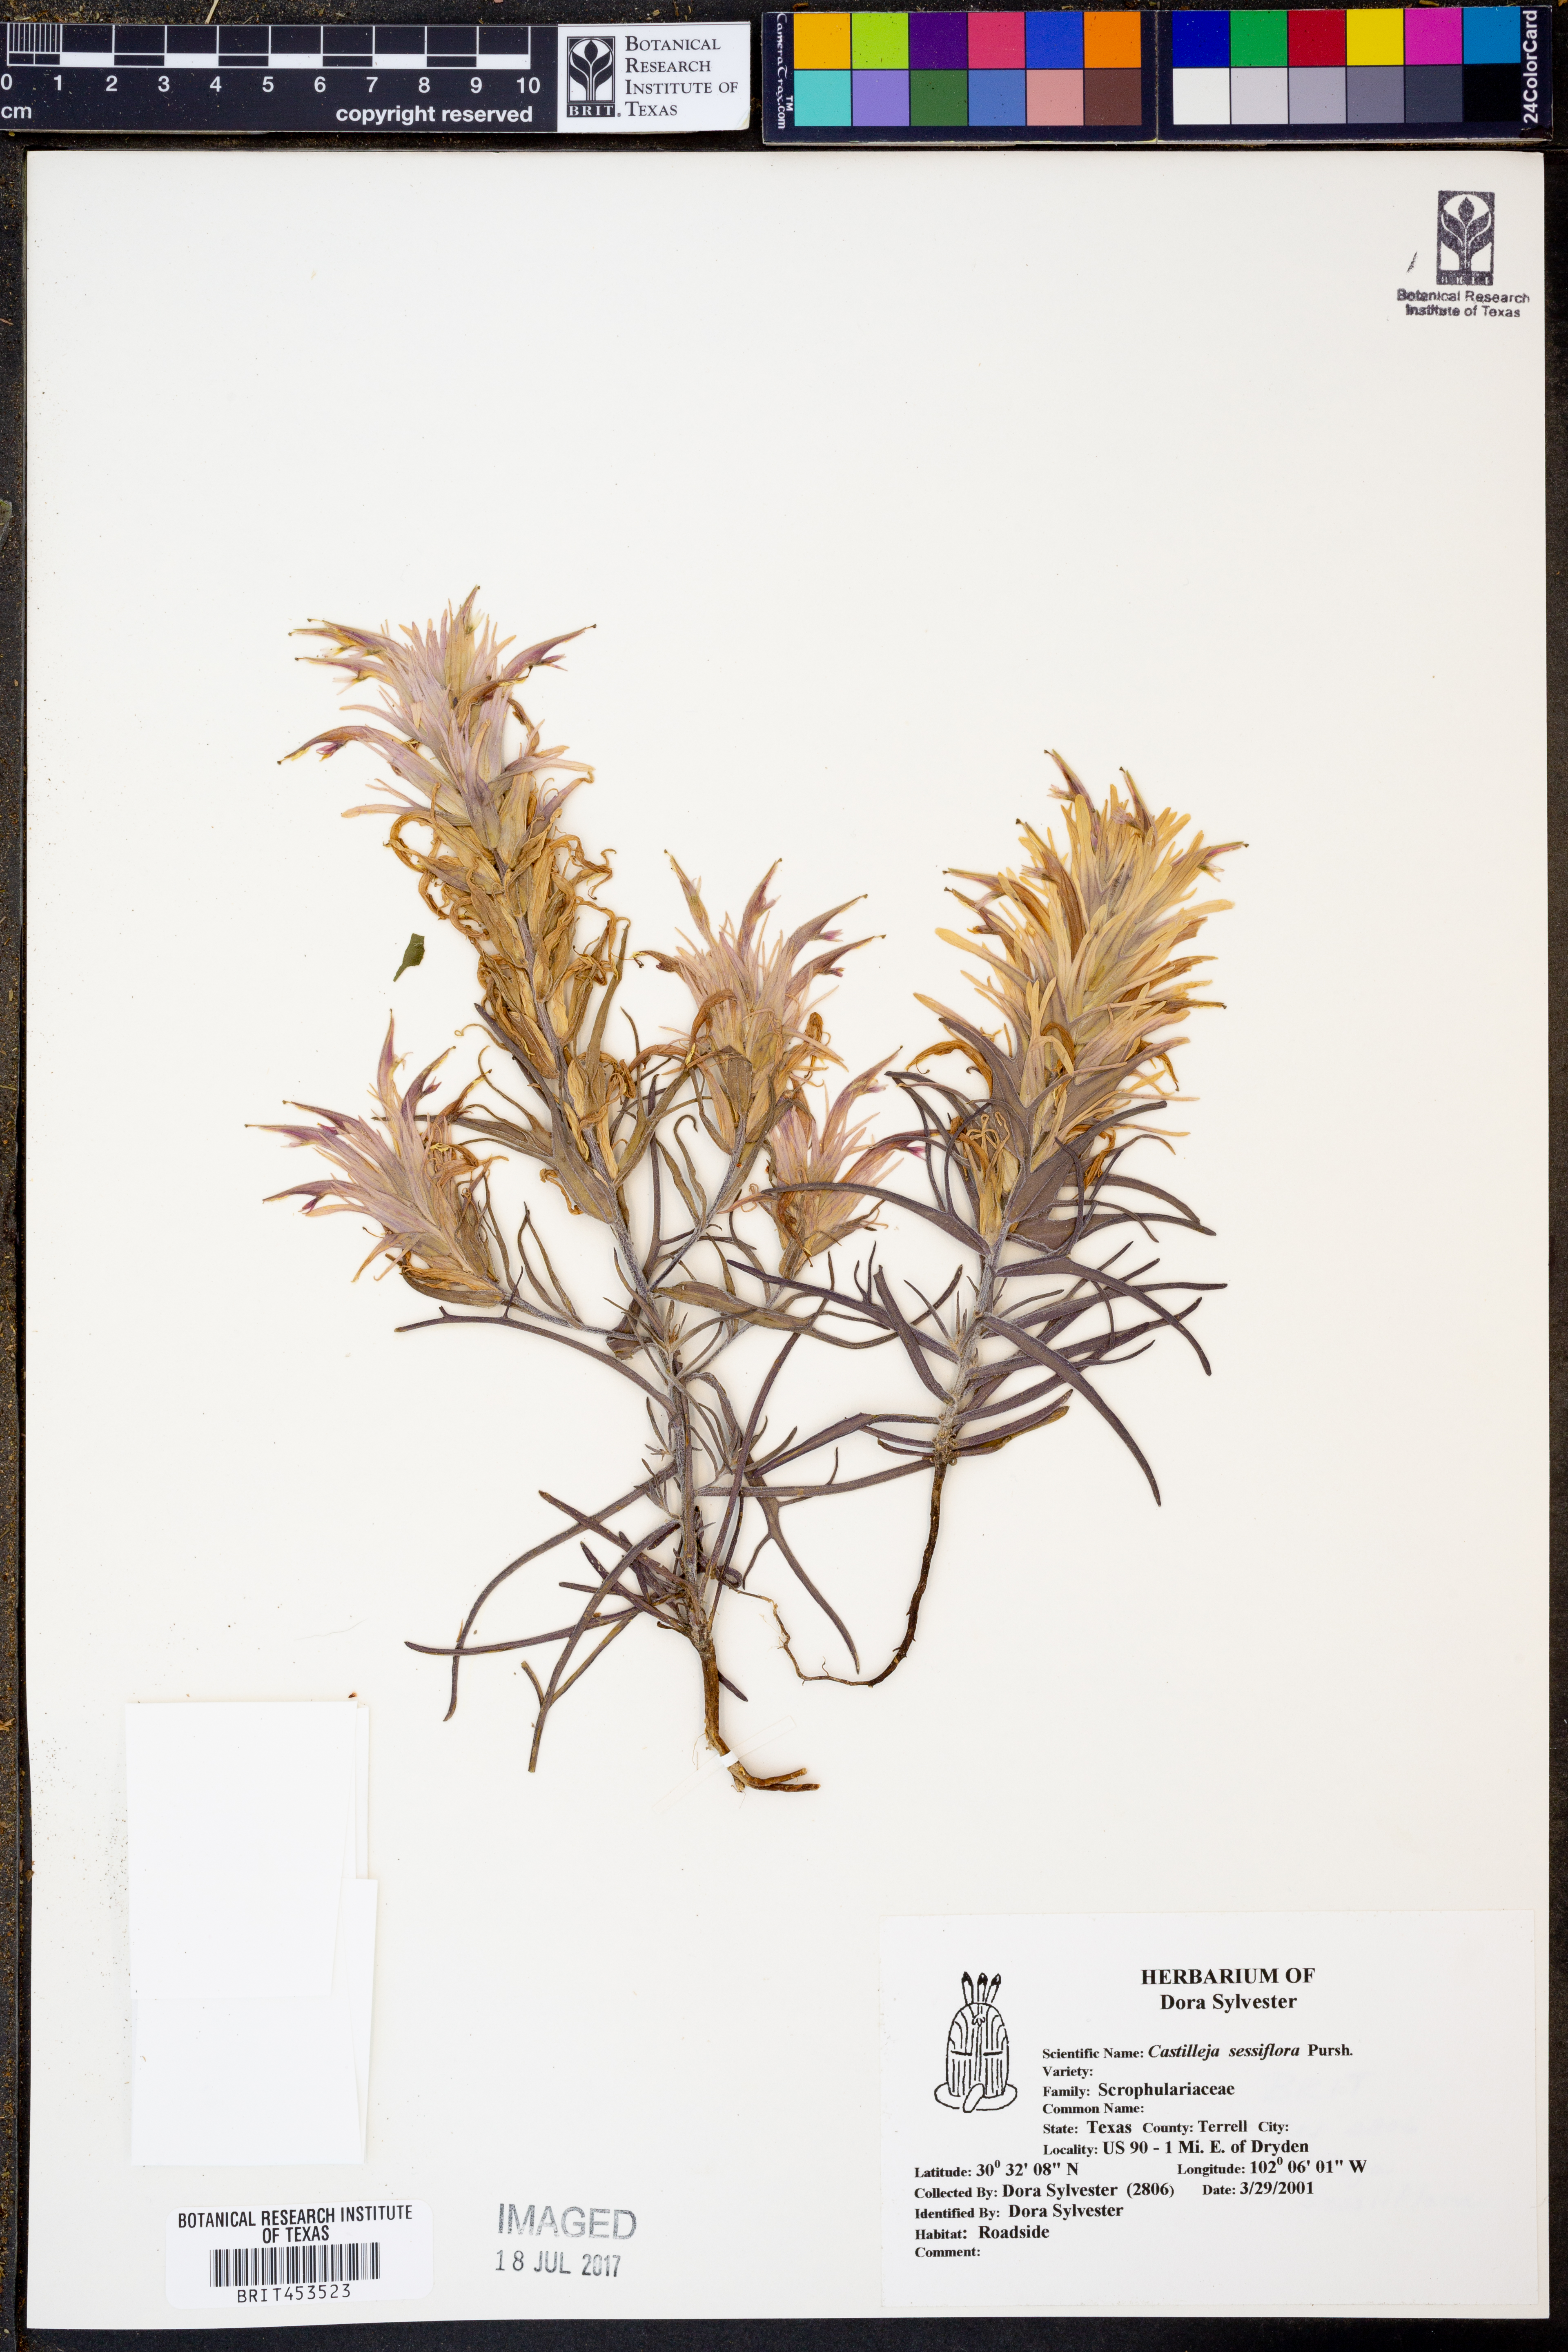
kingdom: Plantae
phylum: Tracheophyta
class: Magnoliopsida
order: Lamiales
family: Orobanchaceae
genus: Castilleja
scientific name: Castilleja sessiliflora
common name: Downy paintbrush
